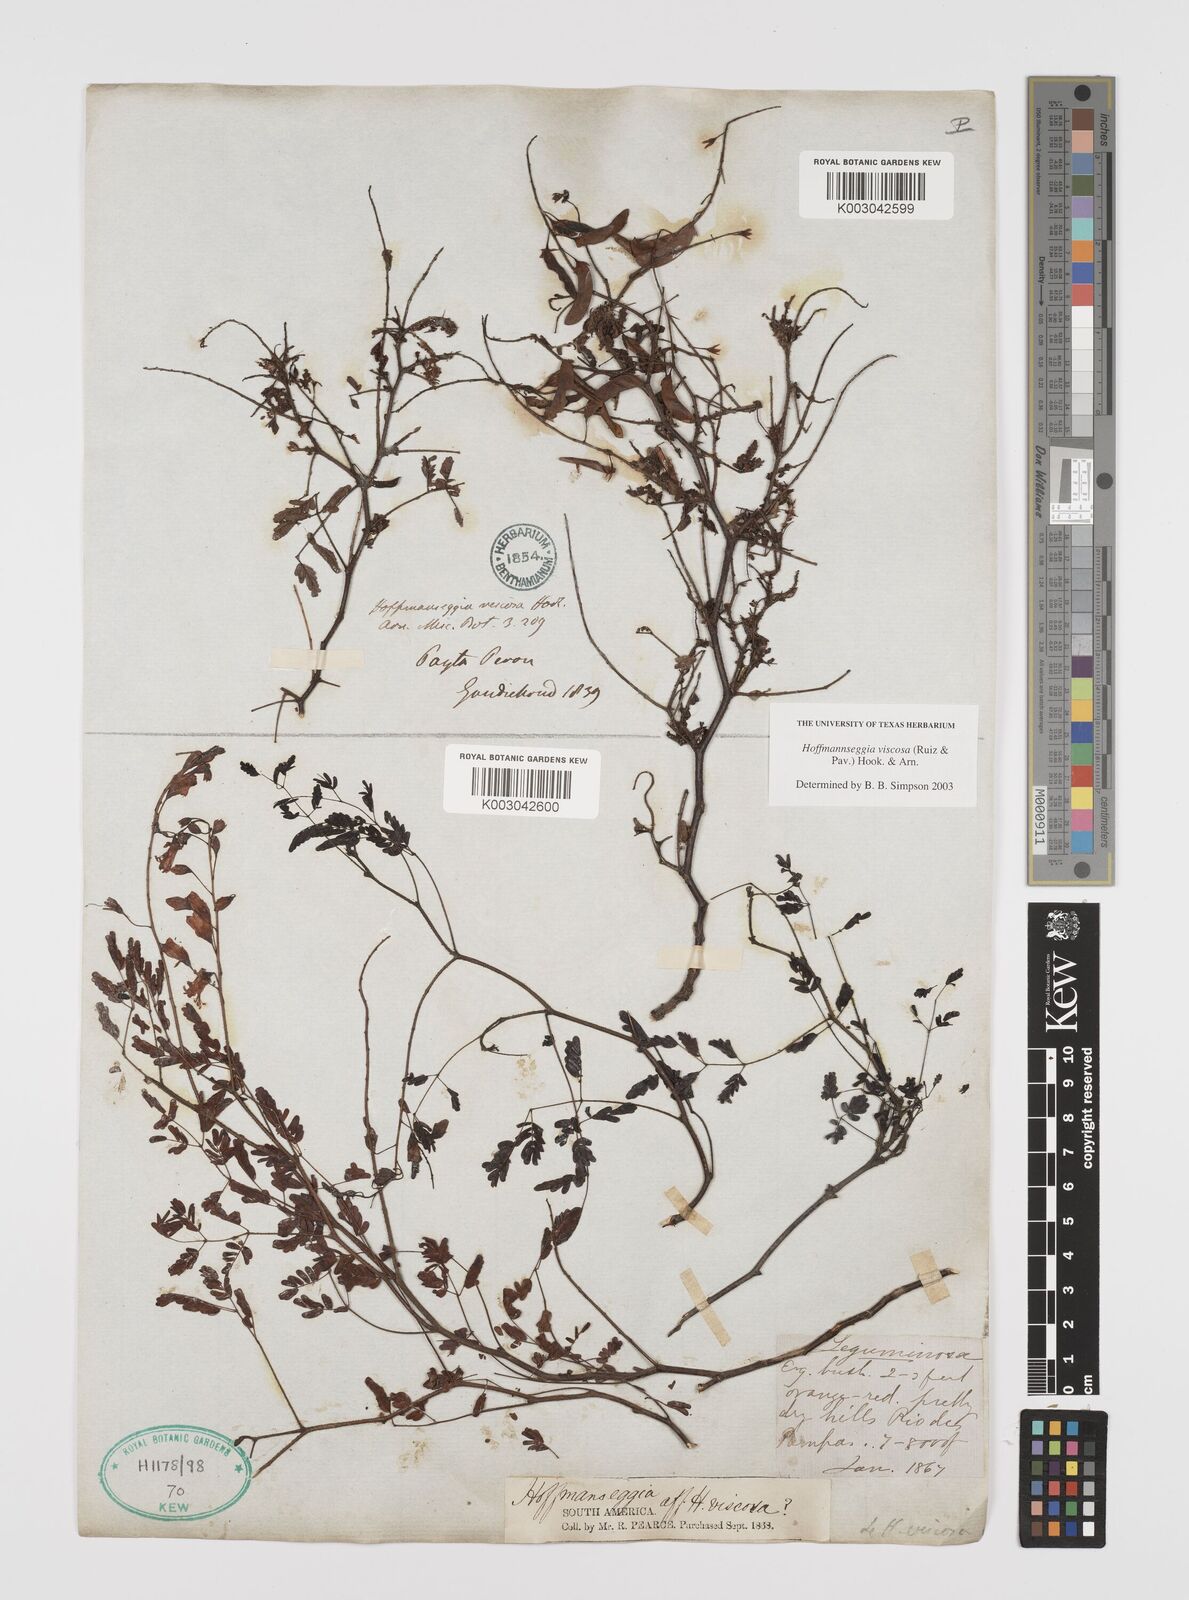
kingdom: Plantae
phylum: Tracheophyta
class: Magnoliopsida
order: Fabales
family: Fabaceae
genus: Hoffmannseggia
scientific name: Hoffmannseggia viscosa
